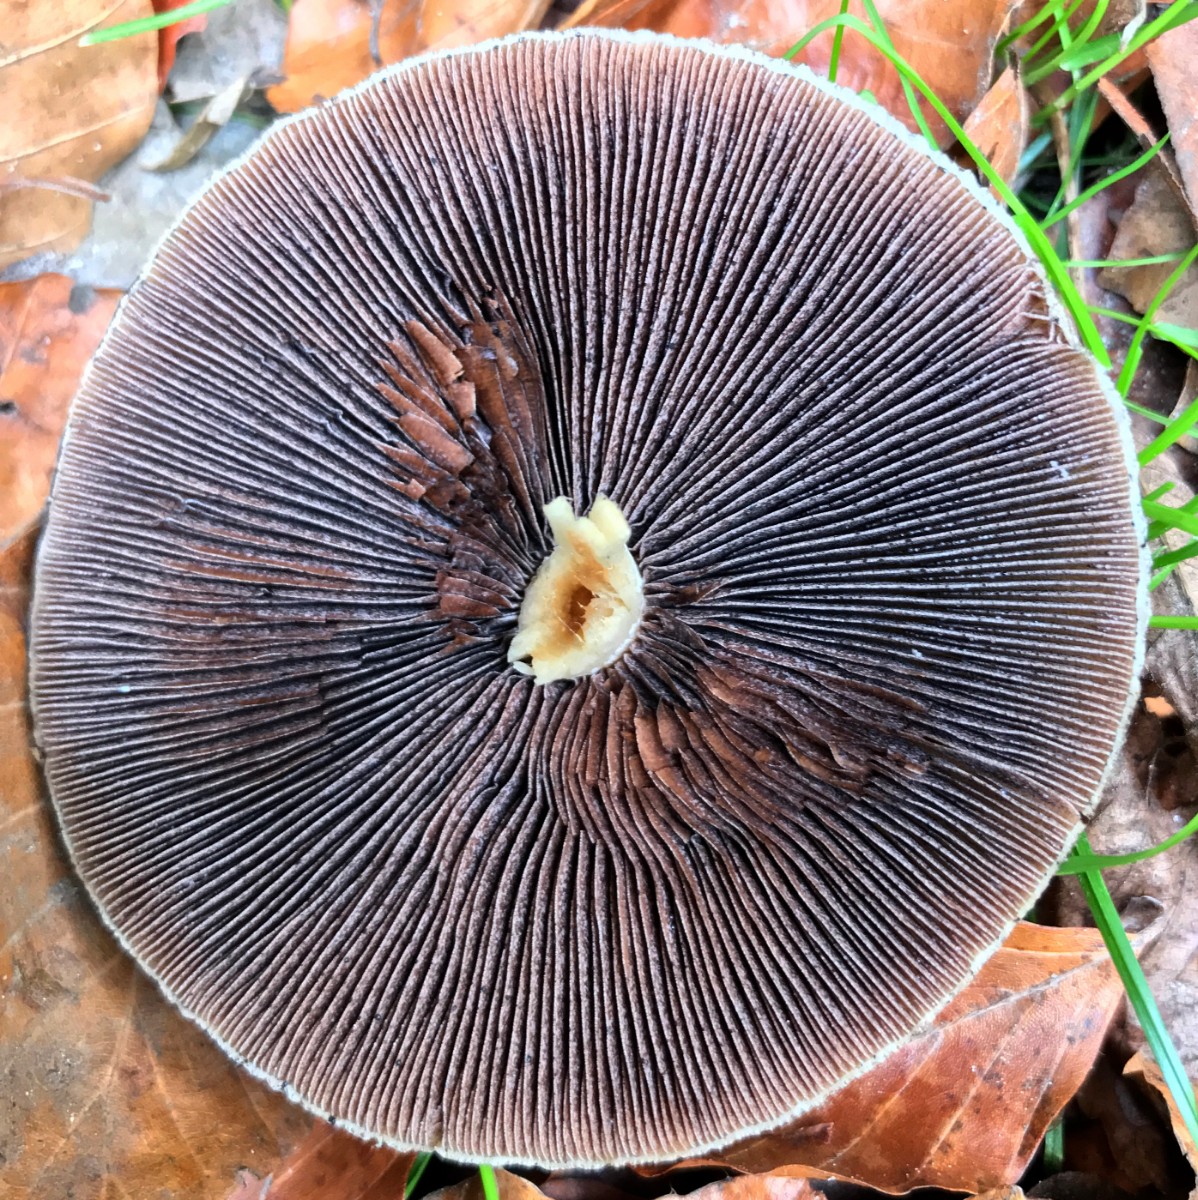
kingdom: Fungi
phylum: Basidiomycota
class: Agaricomycetes
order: Agaricales
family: Psathyrellaceae
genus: Lacrymaria
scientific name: Lacrymaria lacrymabunda
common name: grædende mørkhat
